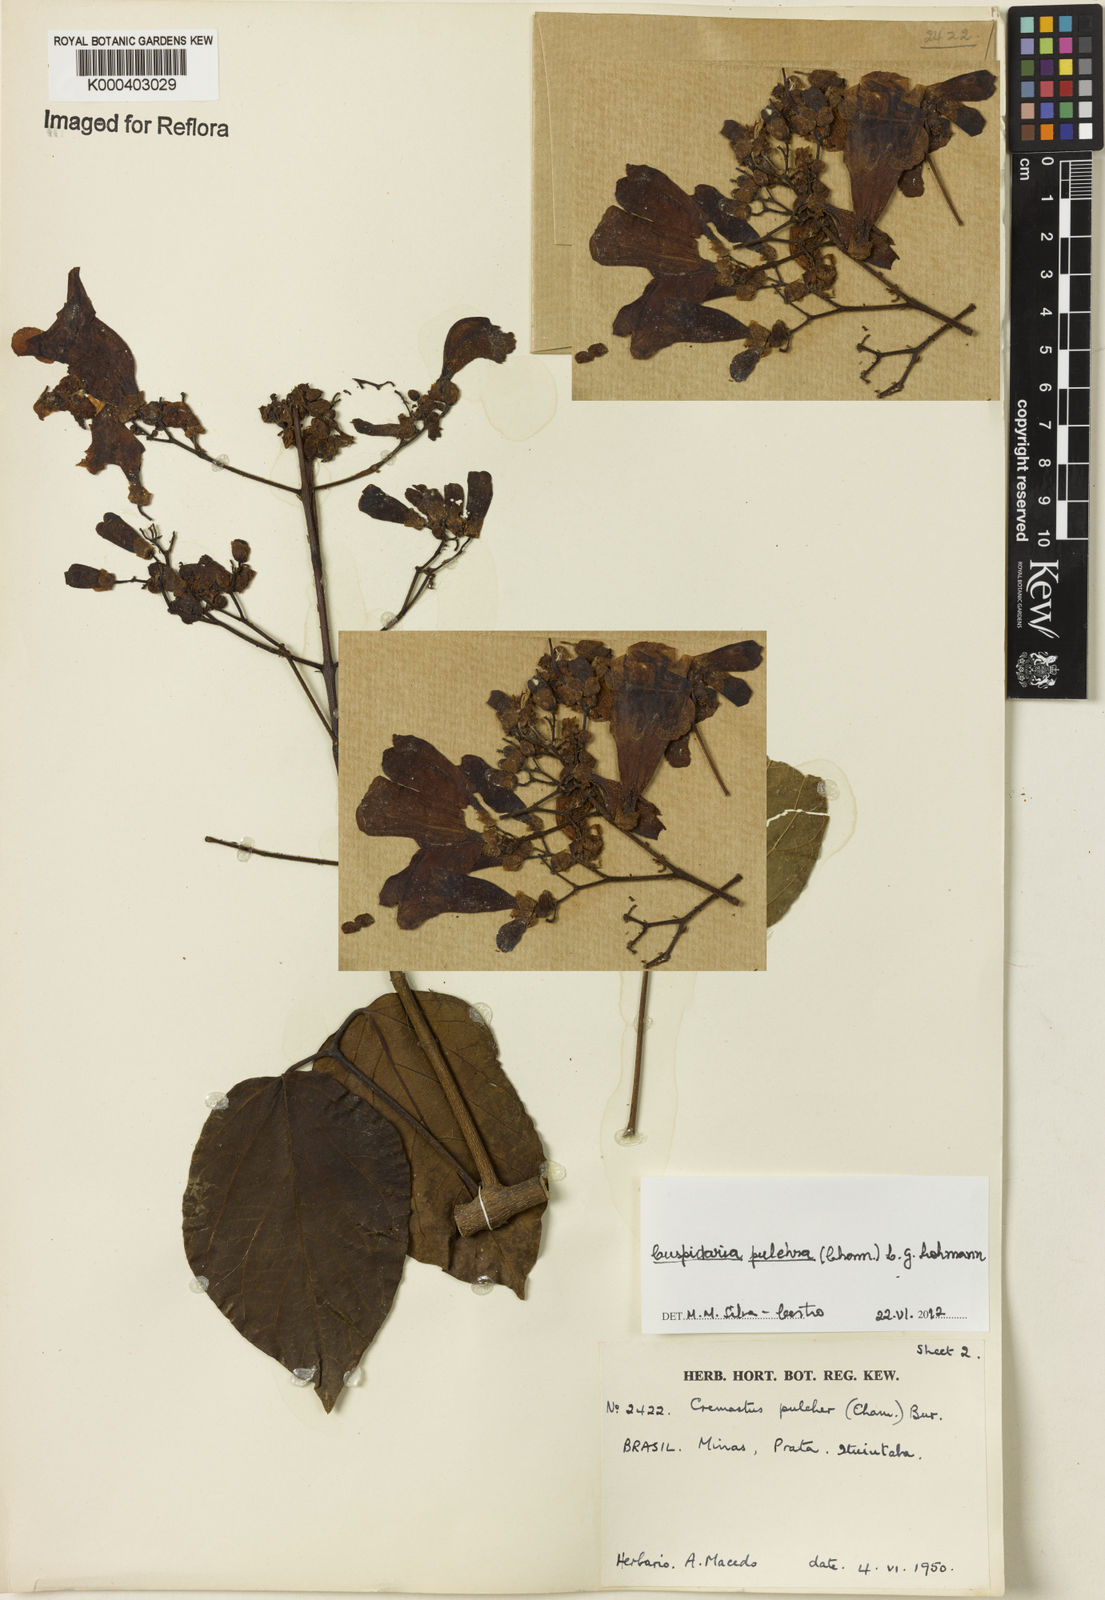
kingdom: Plantae
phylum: Tracheophyta
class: Magnoliopsida
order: Lamiales
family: Bignoniaceae
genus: Cuspidaria
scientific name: Cuspidaria pulchra
